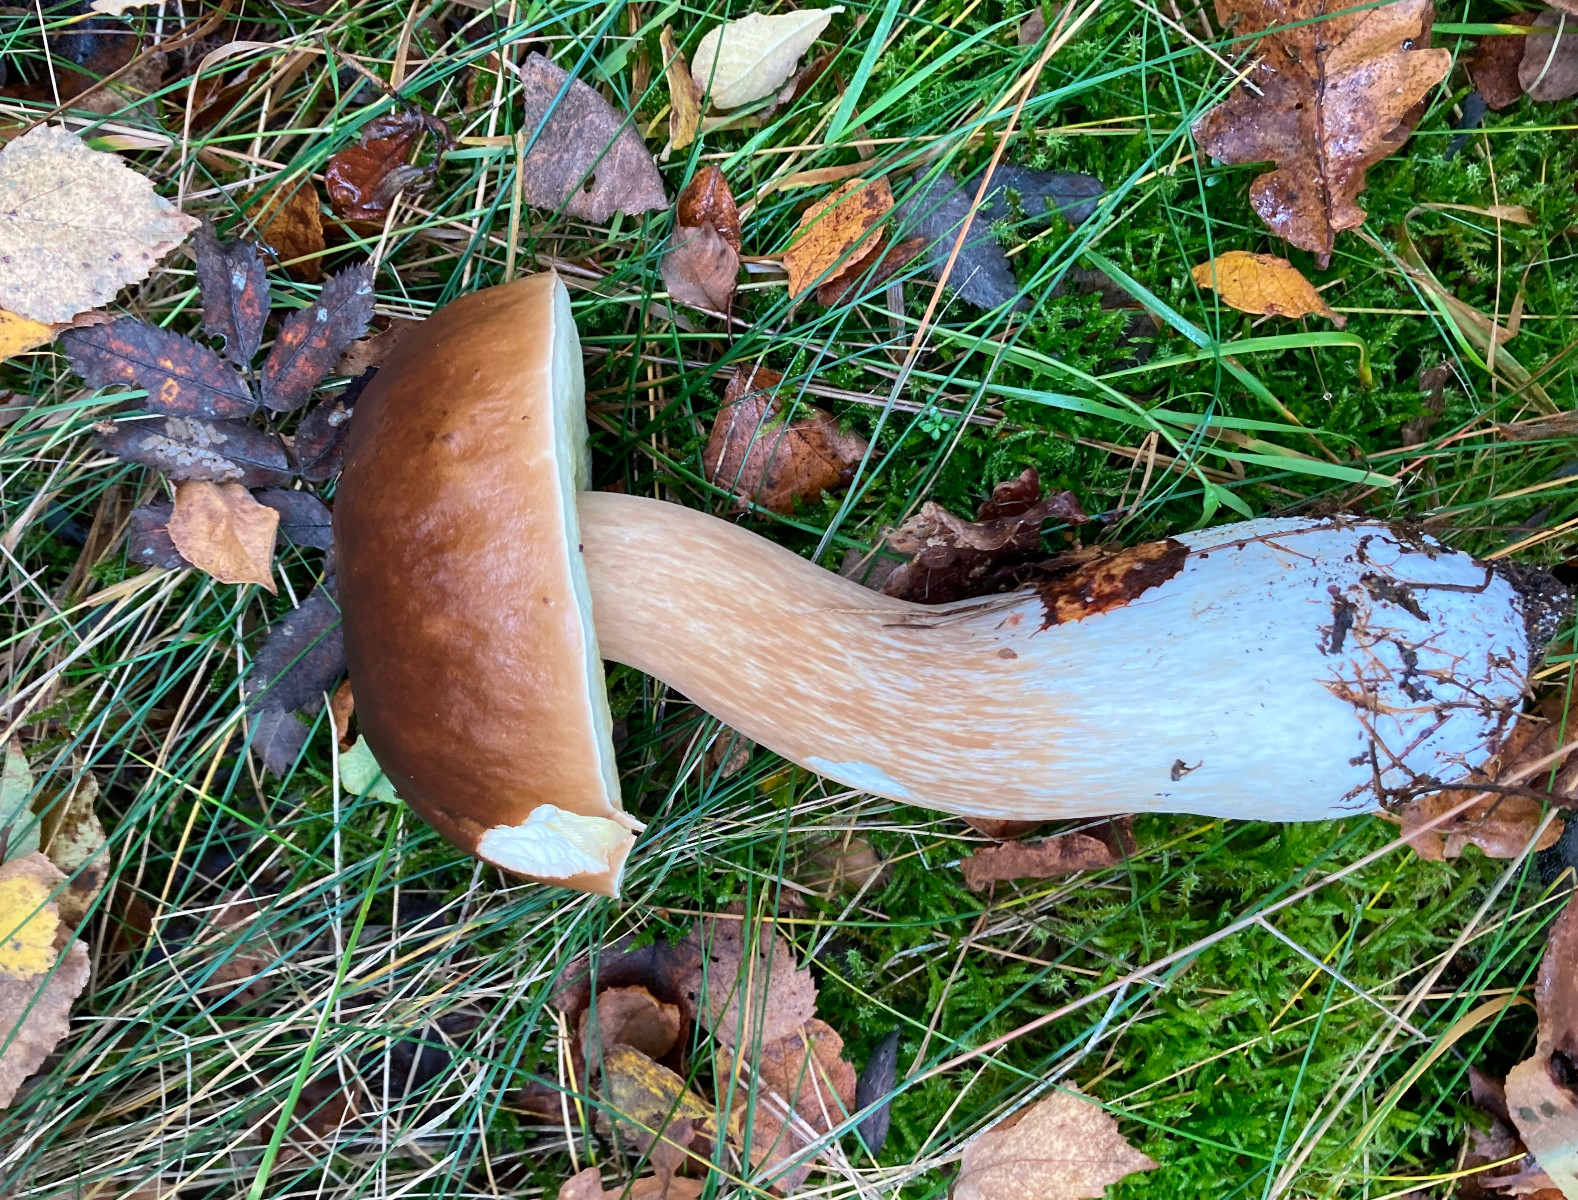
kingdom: Fungi
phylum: Basidiomycota
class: Agaricomycetes
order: Boletales
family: Boletaceae
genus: Boletus
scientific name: Boletus edulis
